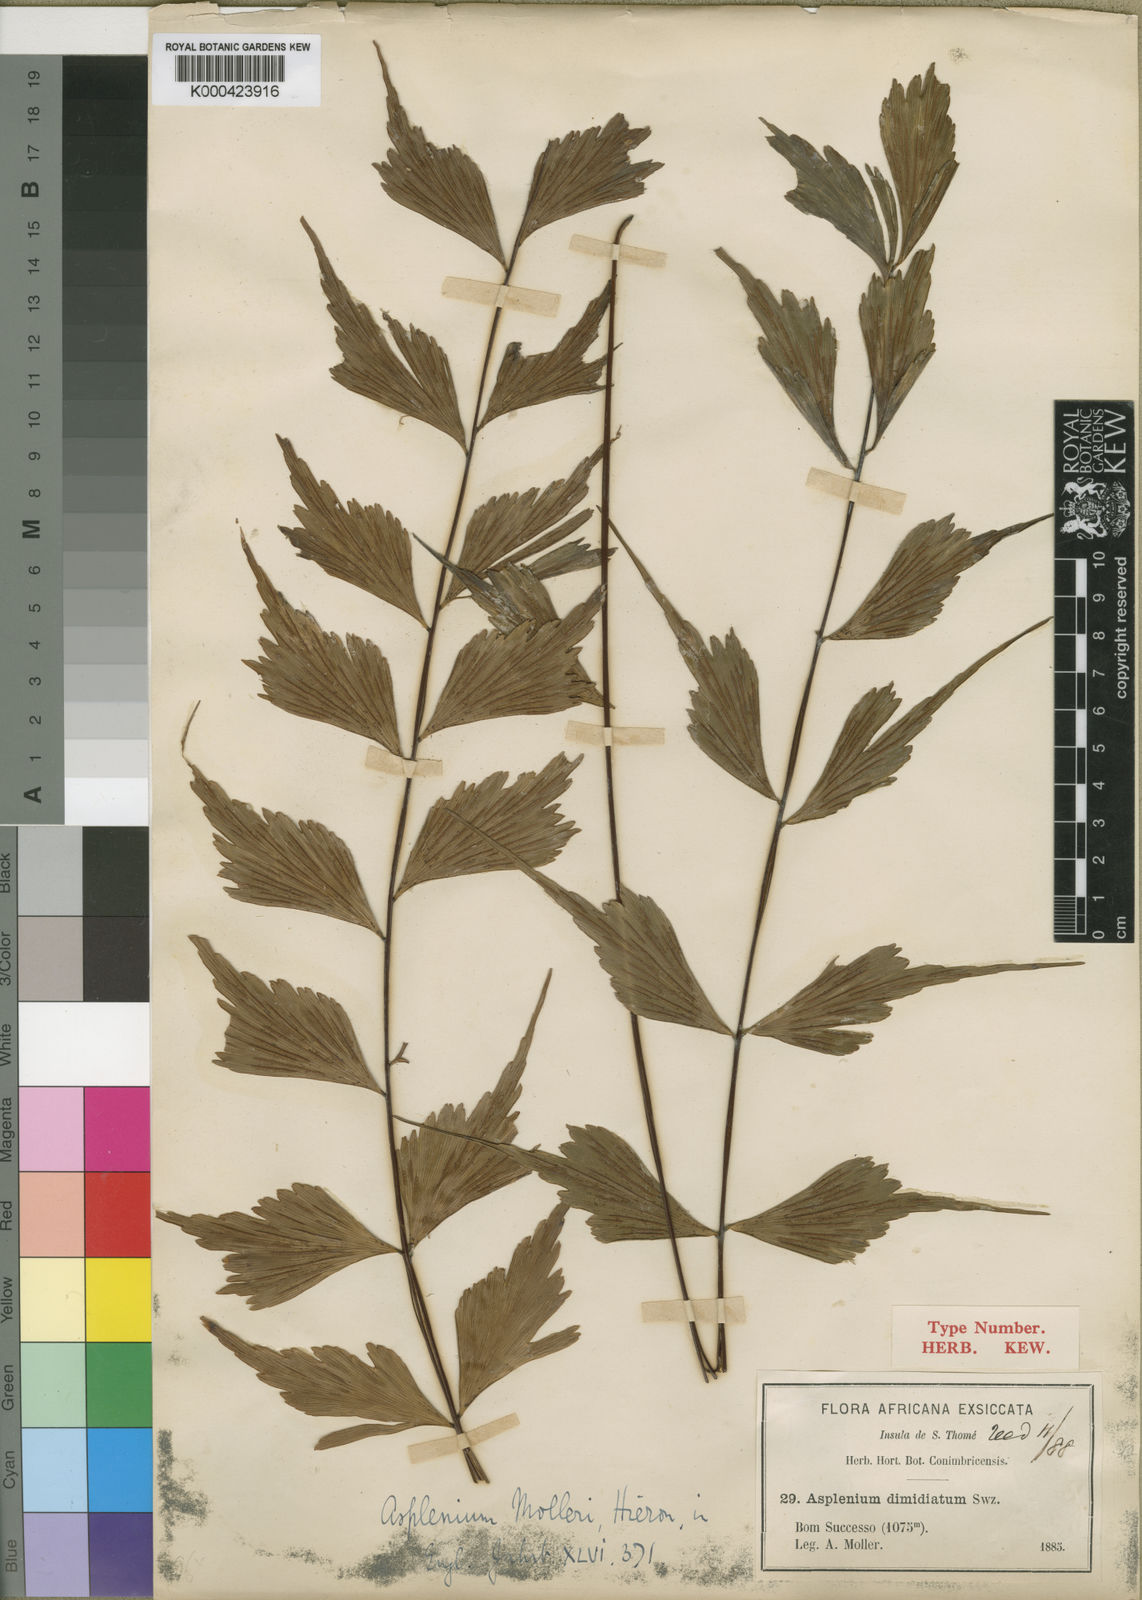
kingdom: Plantae
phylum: Tracheophyta
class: Polypodiopsida
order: Polypodiales
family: Aspleniaceae
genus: Asplenium
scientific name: Asplenium megalura
